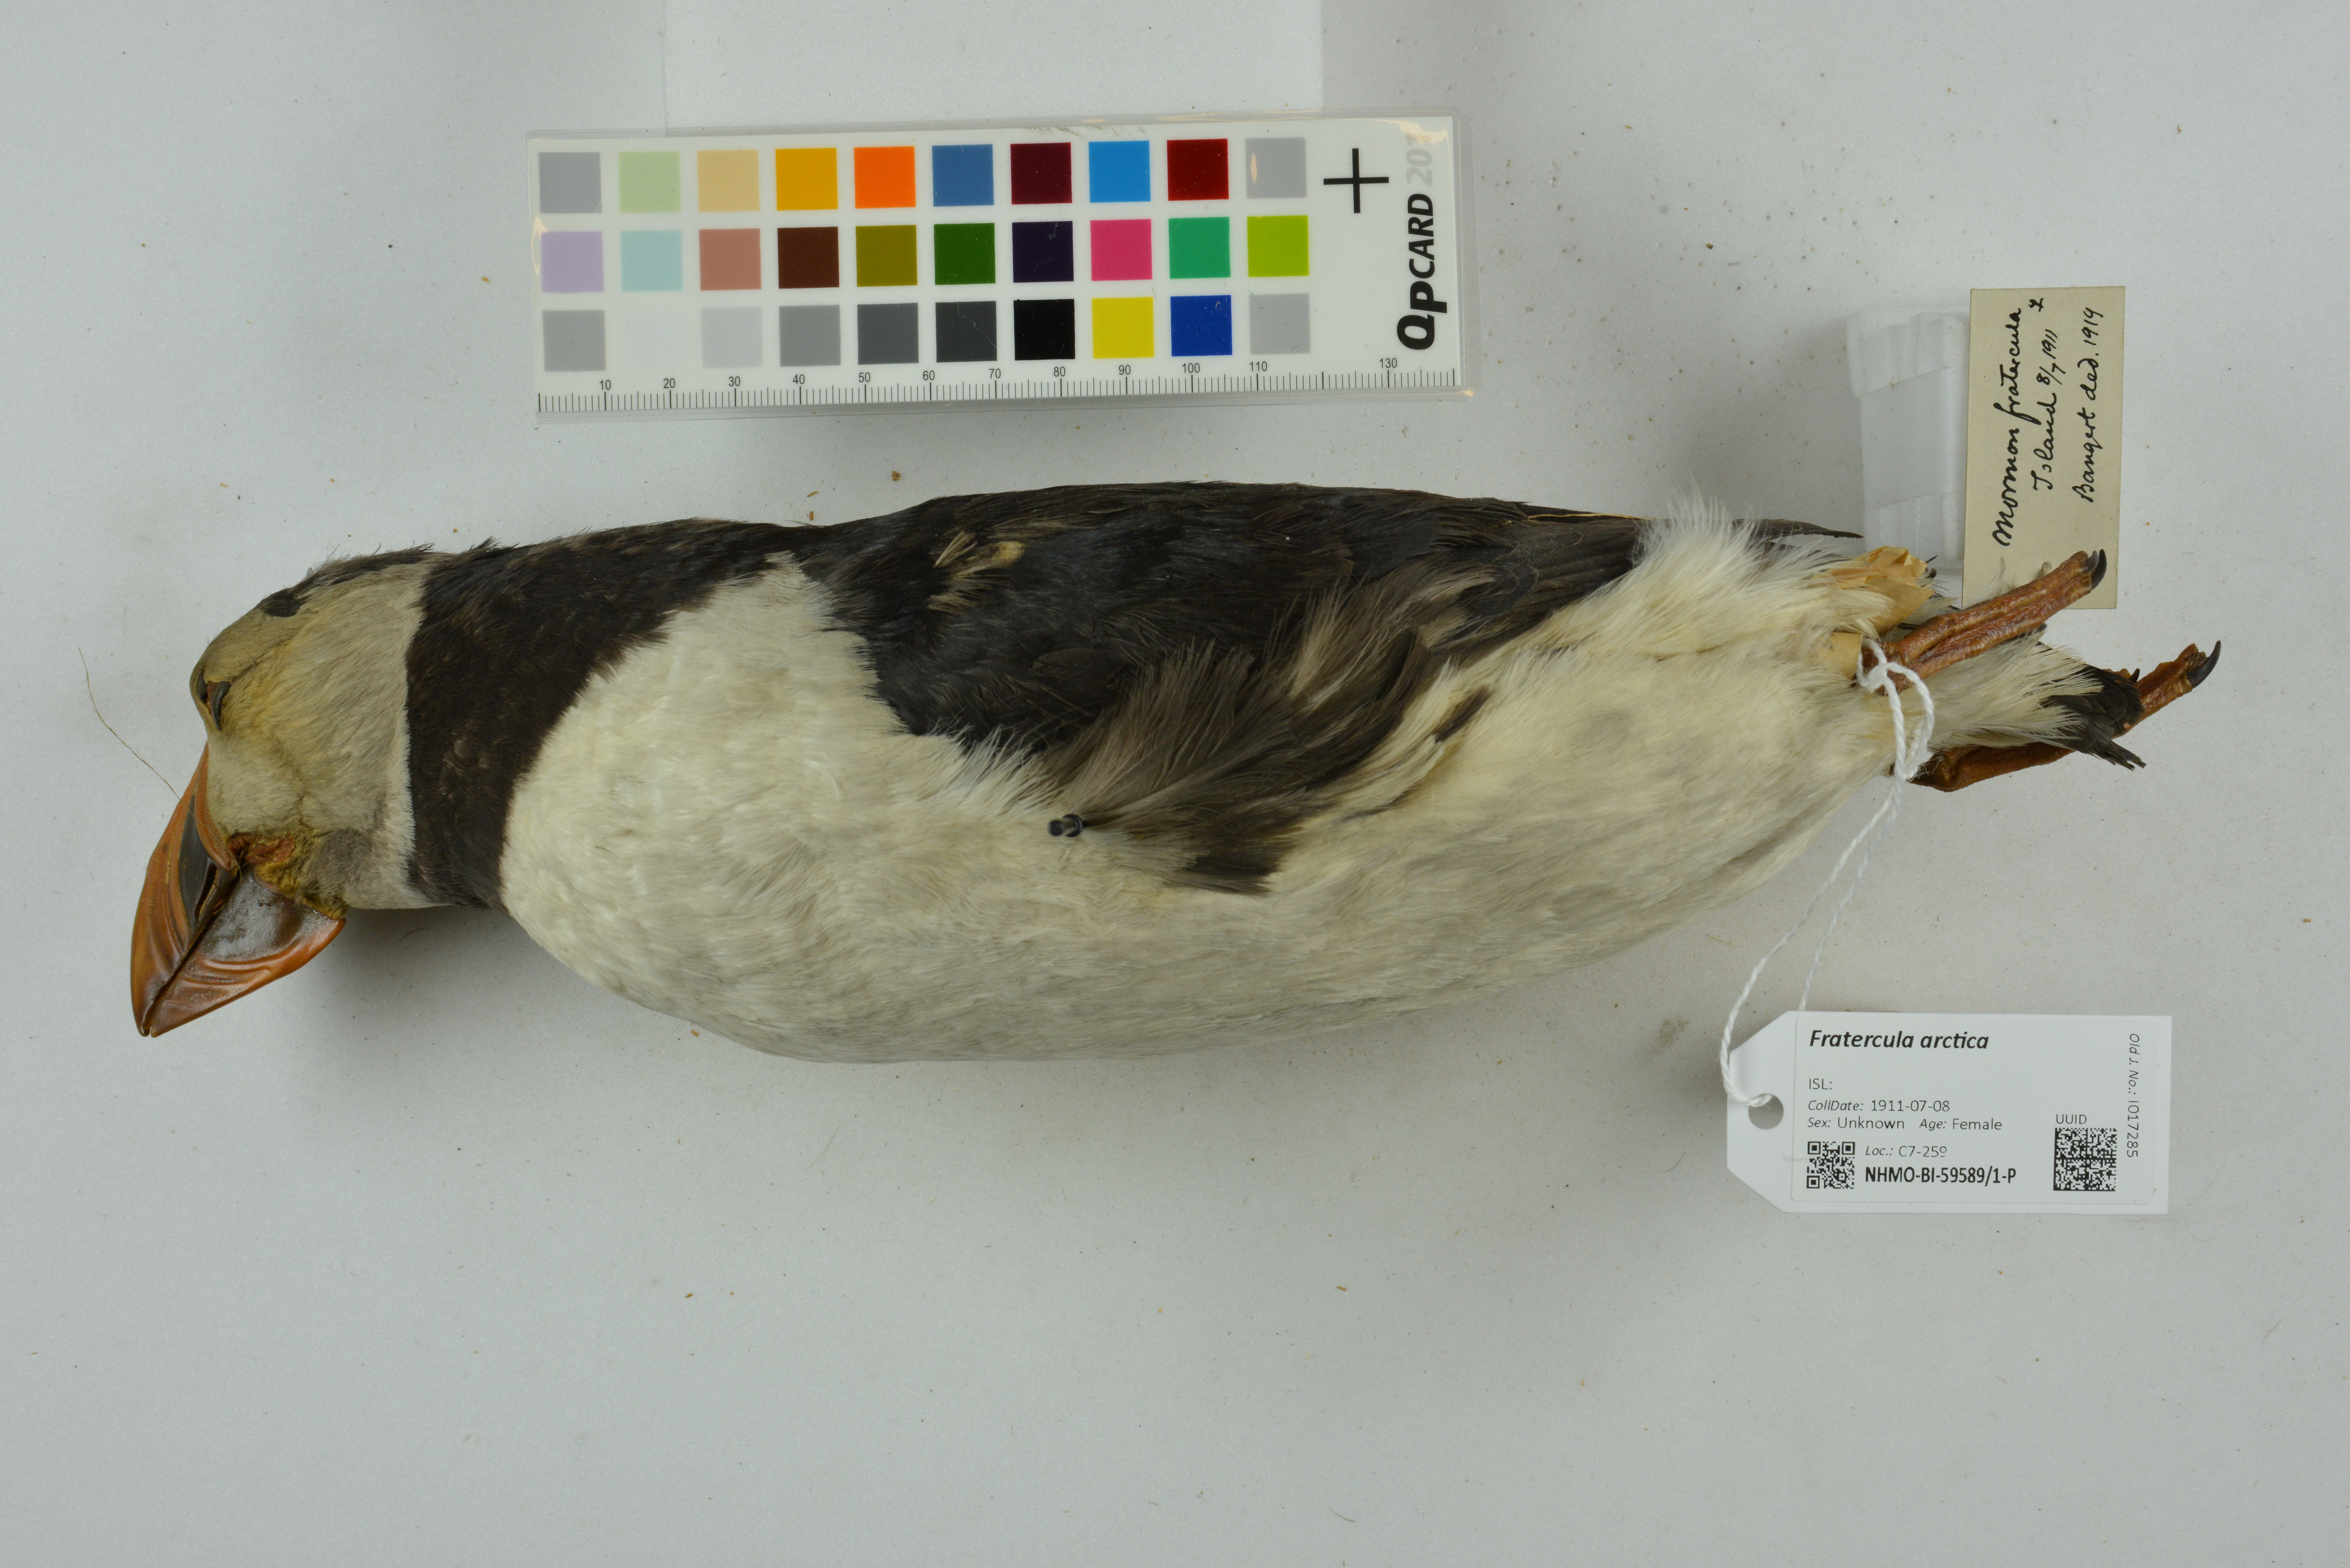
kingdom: Animalia
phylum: Chordata
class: Aves
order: Charadriiformes
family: Alcidae
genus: Fratercula
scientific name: Fratercula arctica
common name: Atlantic puffin
